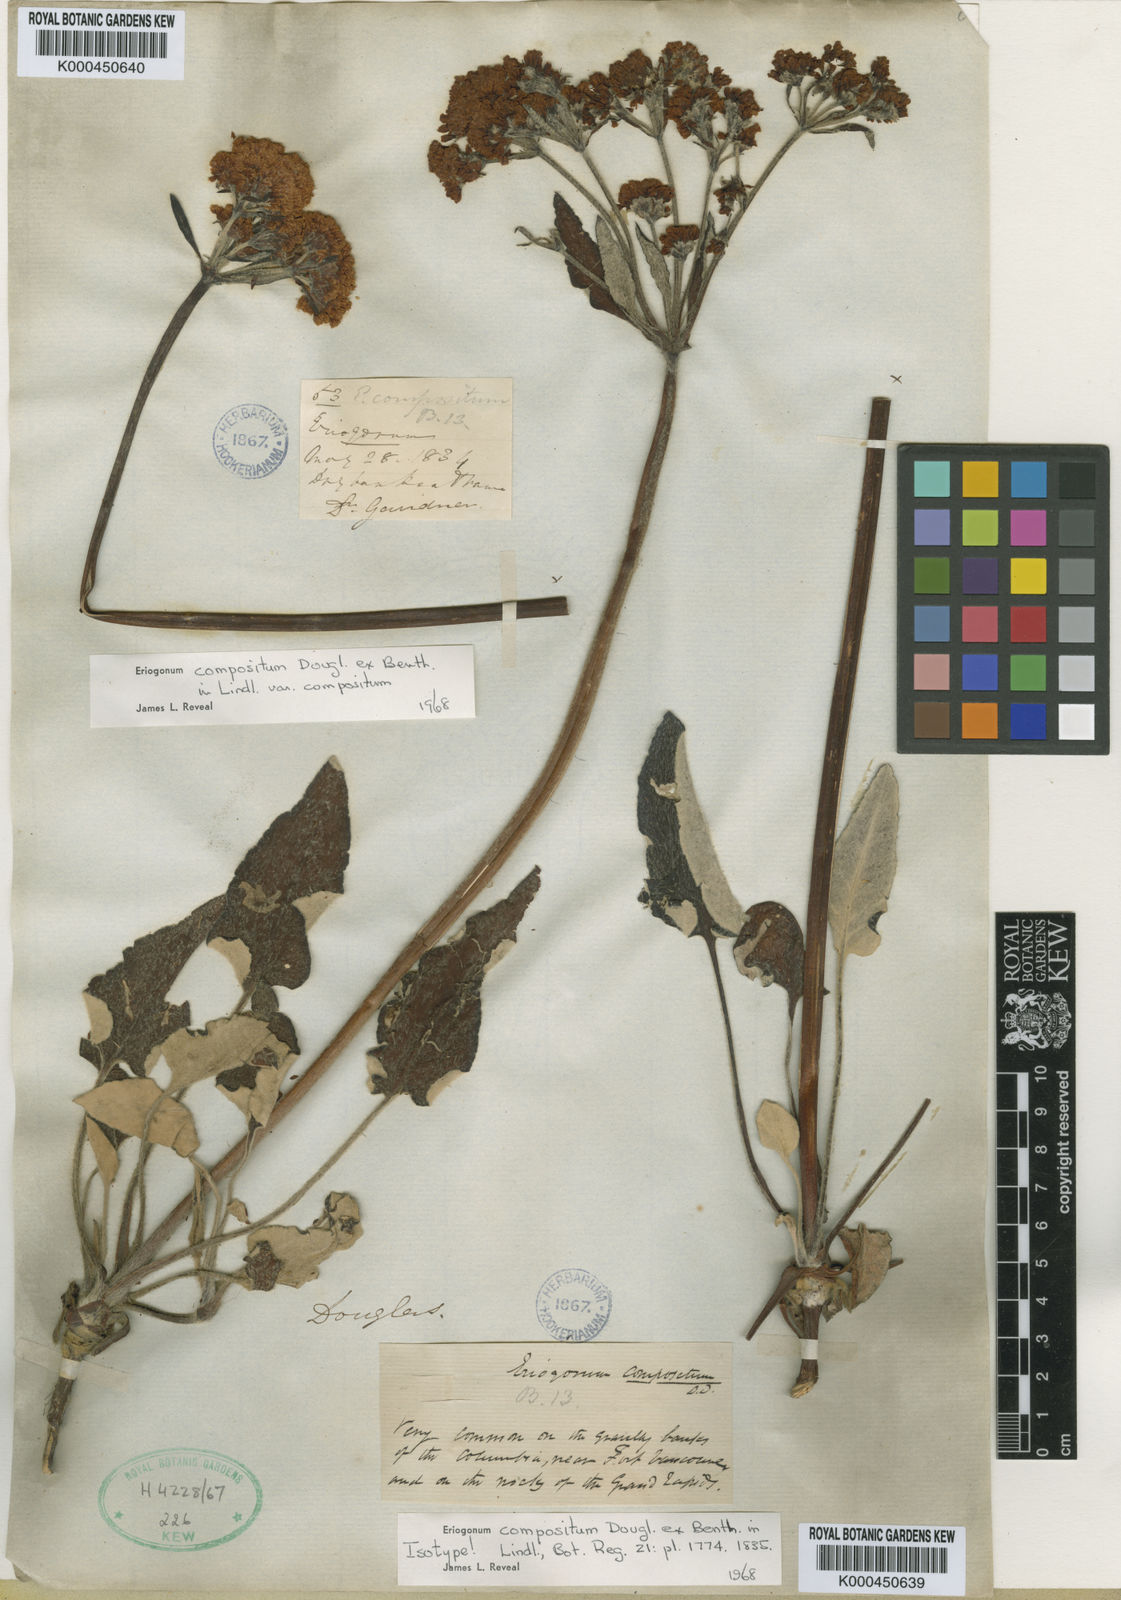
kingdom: Plantae
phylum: Tracheophyta
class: Magnoliopsida
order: Caryophyllales
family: Polygonaceae
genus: Eriogonum
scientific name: Eriogonum compositum
